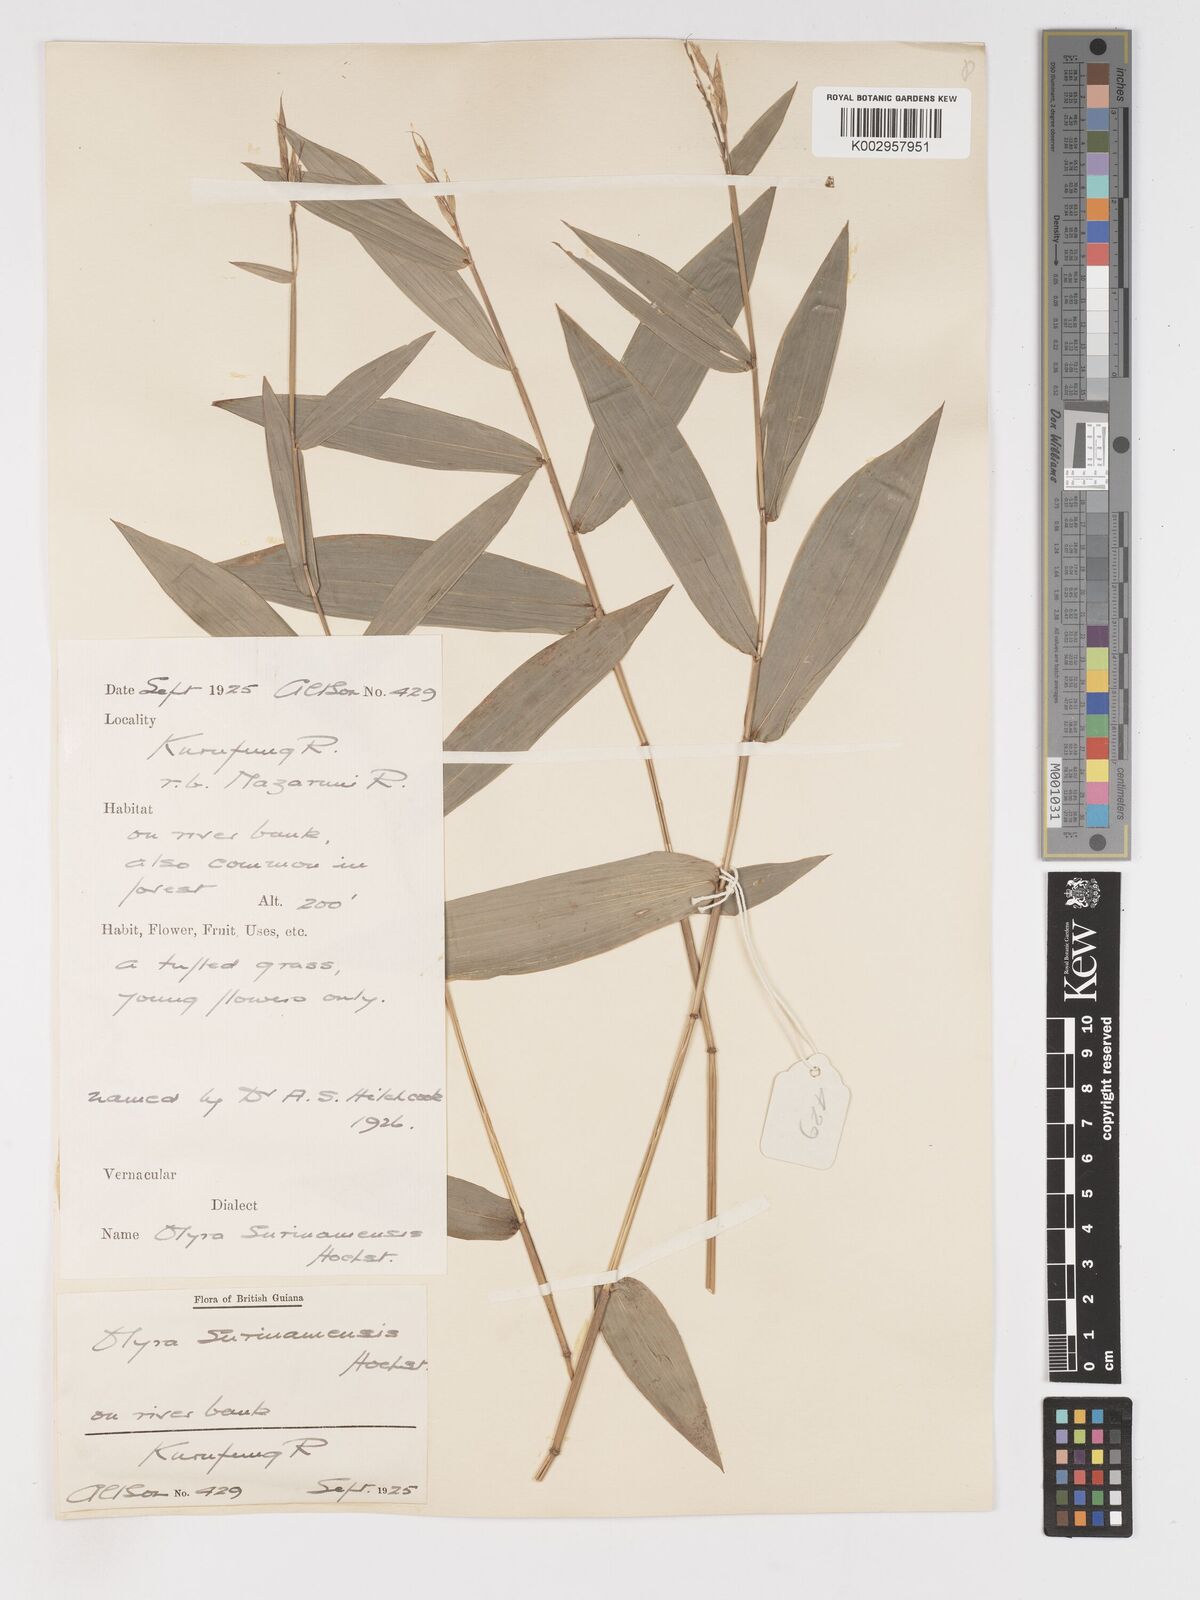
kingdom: Plantae
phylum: Tracheophyta
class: Liliopsida
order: Poales
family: Poaceae
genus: Olyra
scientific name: Olyra longifolia
